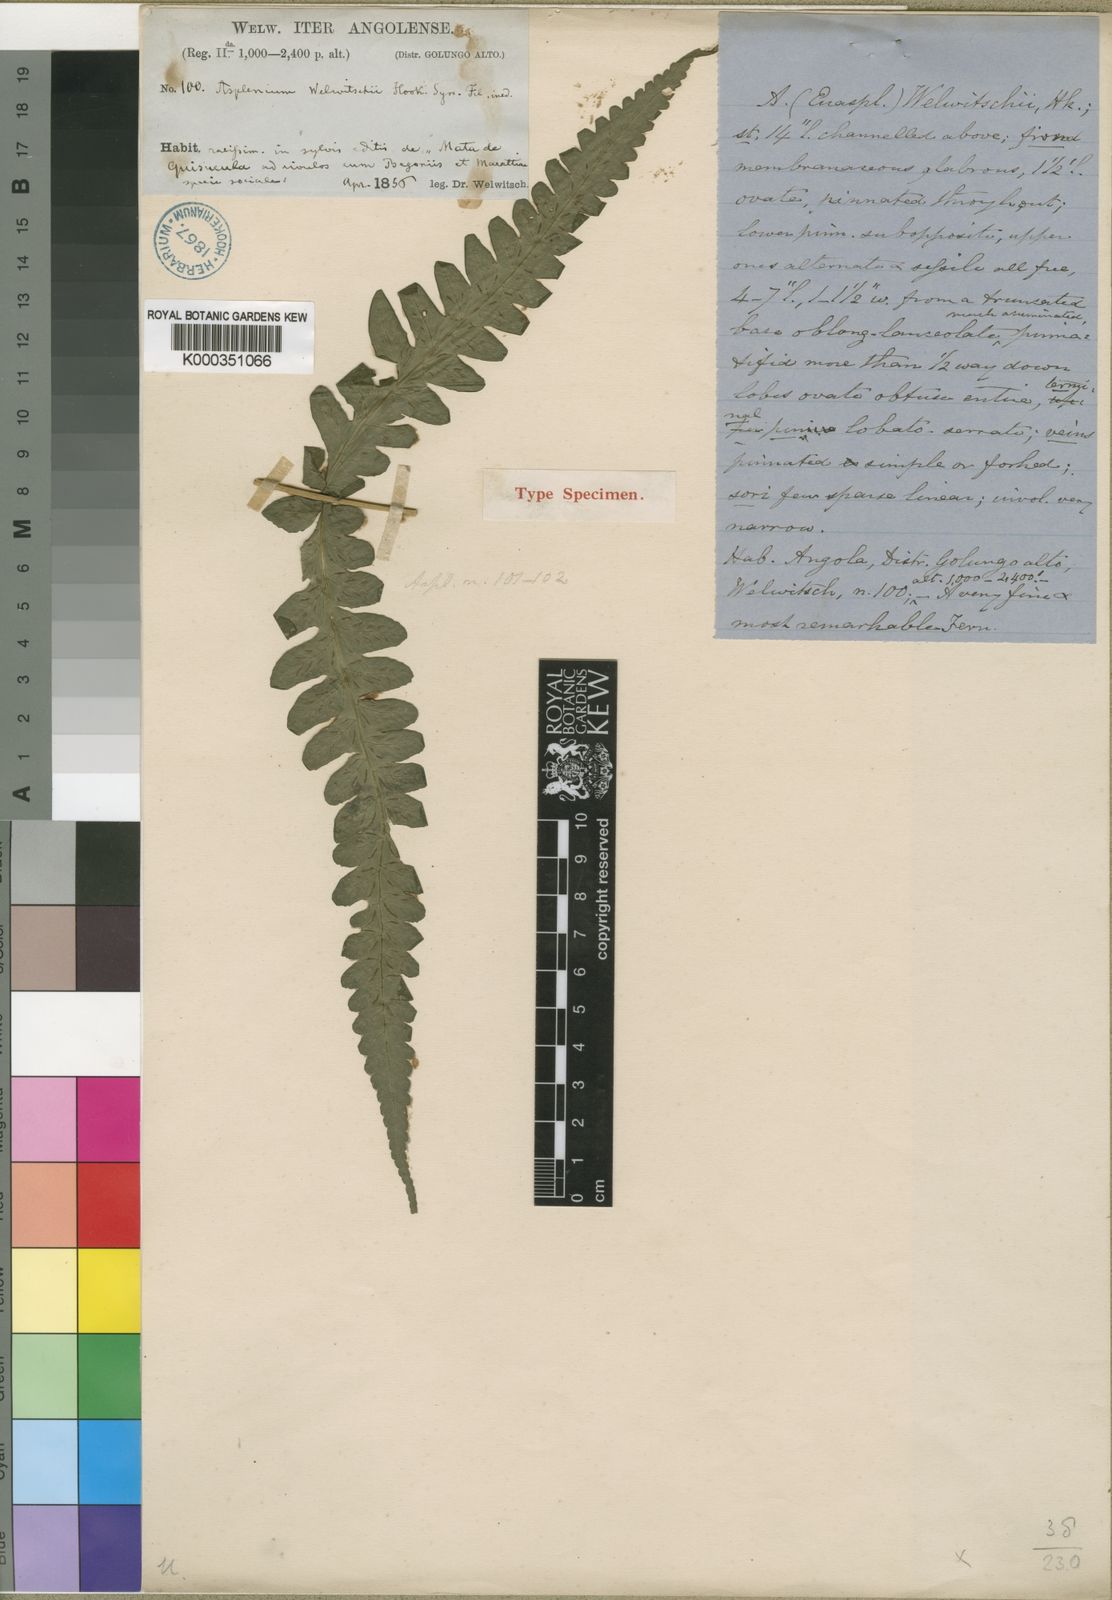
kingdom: Plantae
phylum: Tracheophyta
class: Polypodiopsida
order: Polypodiales
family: Athyriaceae
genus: Diplazium
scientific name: Diplazium welwitschii
